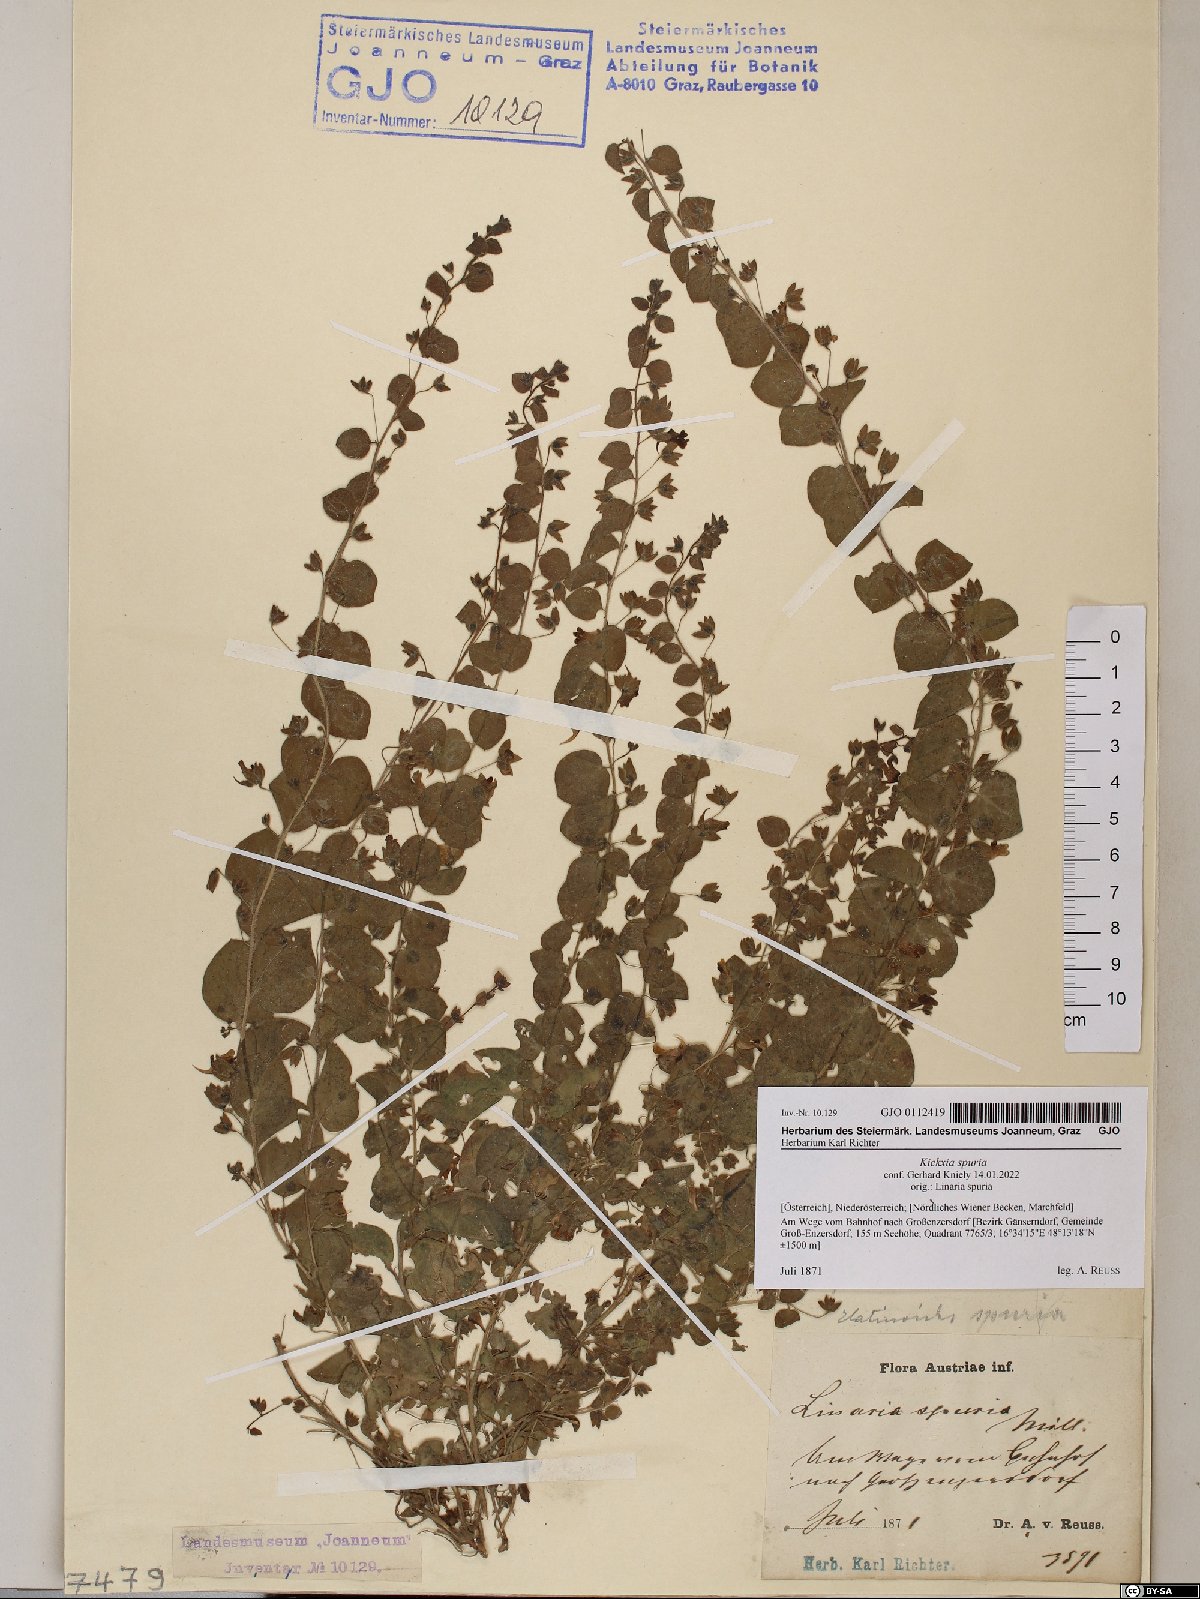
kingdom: Plantae
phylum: Tracheophyta
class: Magnoliopsida
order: Lamiales
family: Plantaginaceae
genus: Kickxia
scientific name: Kickxia spuria
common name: Round-leaved fluellen
